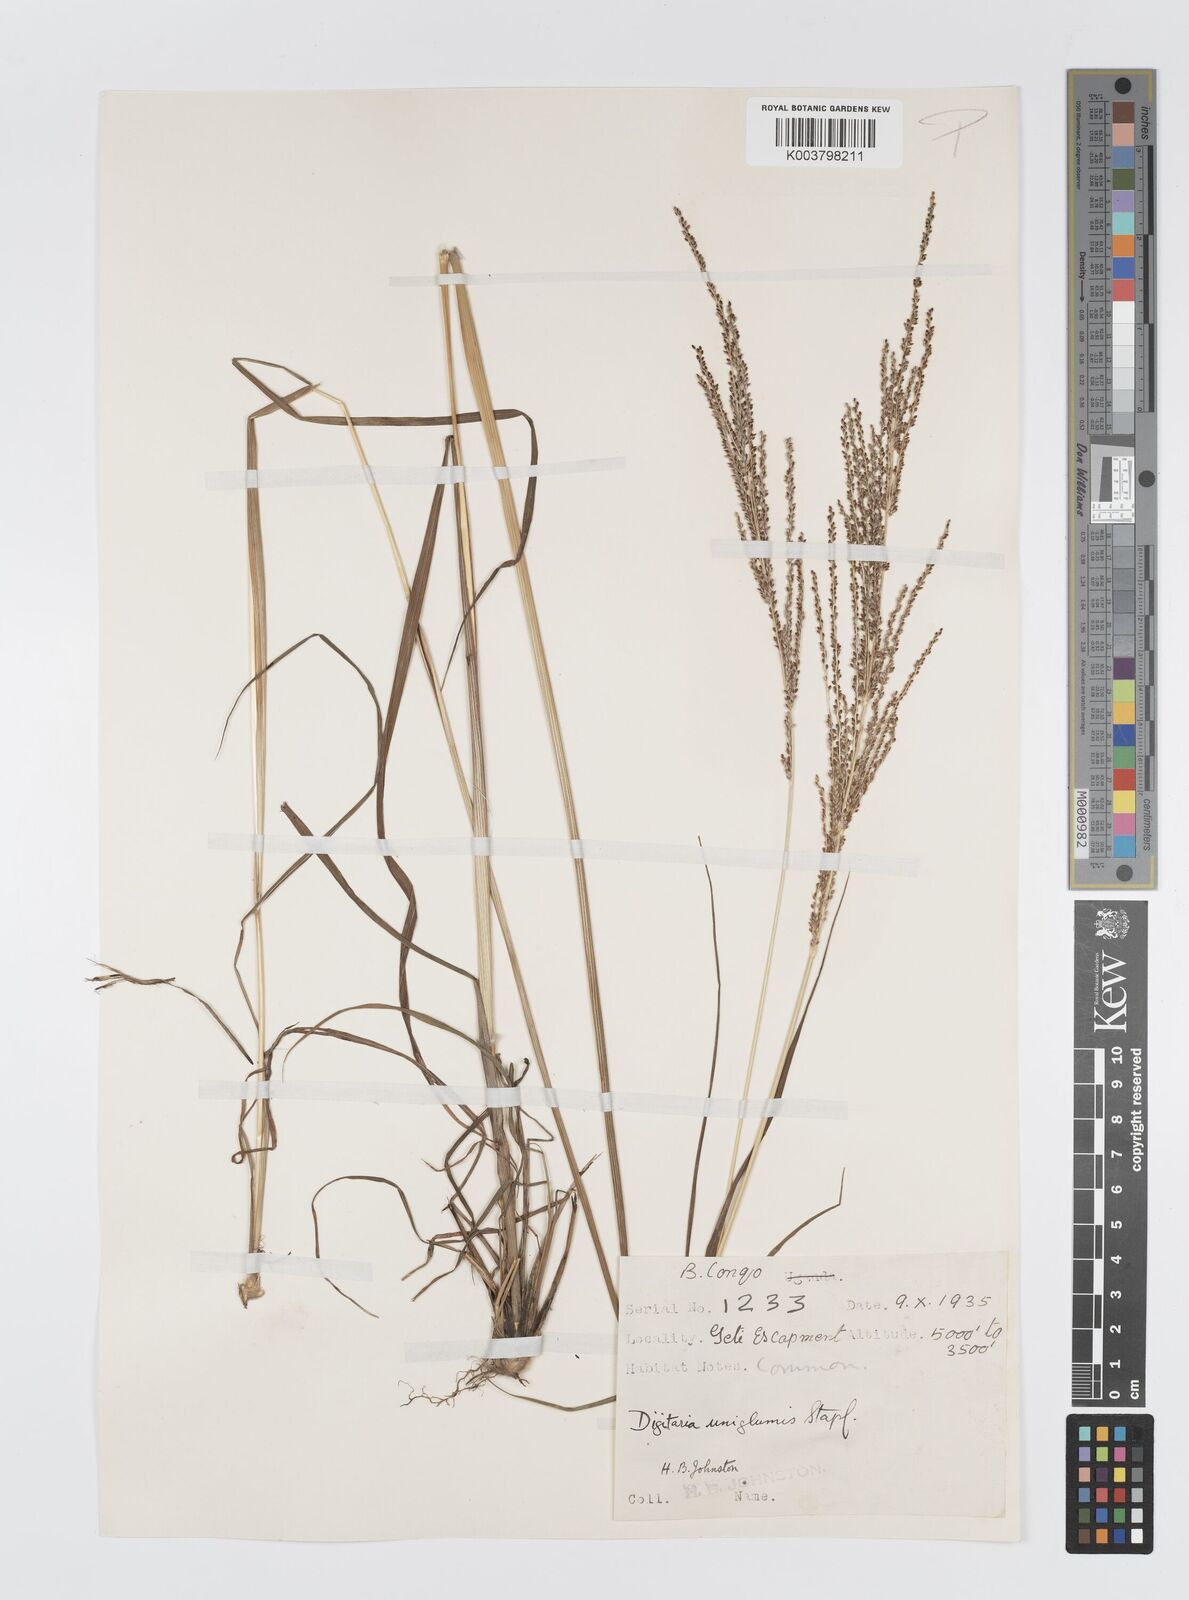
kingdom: Plantae
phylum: Tracheophyta
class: Liliopsida
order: Poales
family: Poaceae
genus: Digitaria
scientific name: Digitaria diagonalis
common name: Brown-seed finger grass
